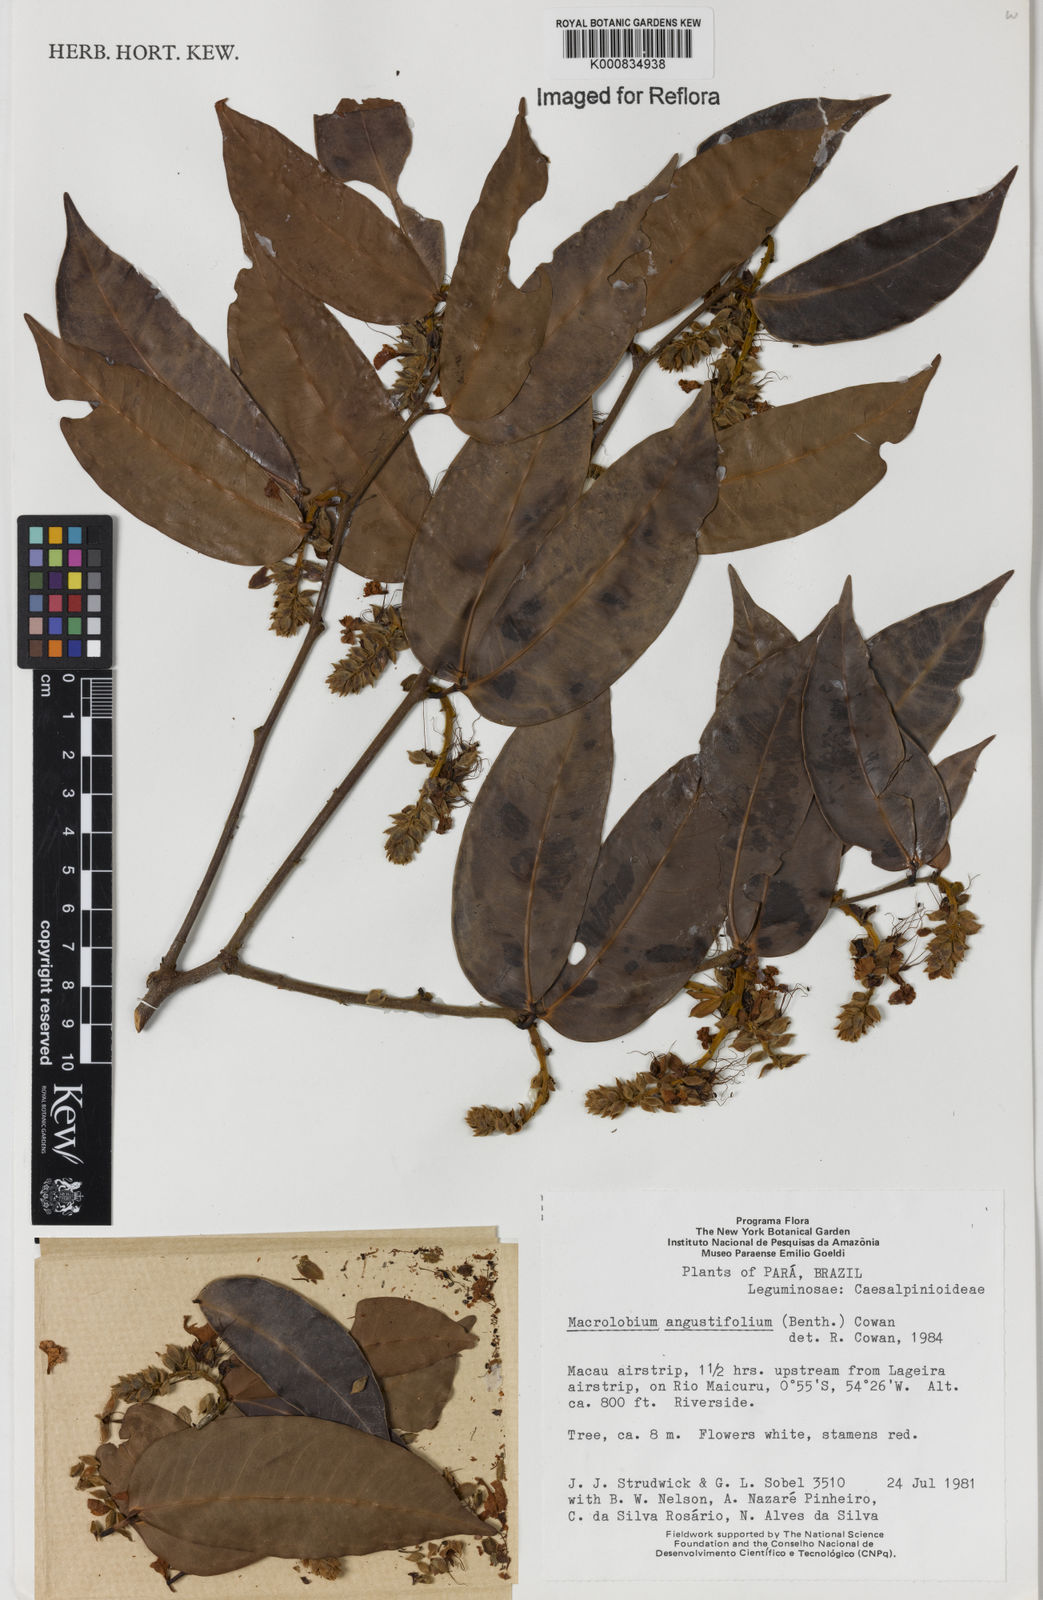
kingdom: Plantae
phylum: Tracheophyta
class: Magnoliopsida
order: Fabales
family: Fabaceae
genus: Macrolobium
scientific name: Macrolobium angustifolium
